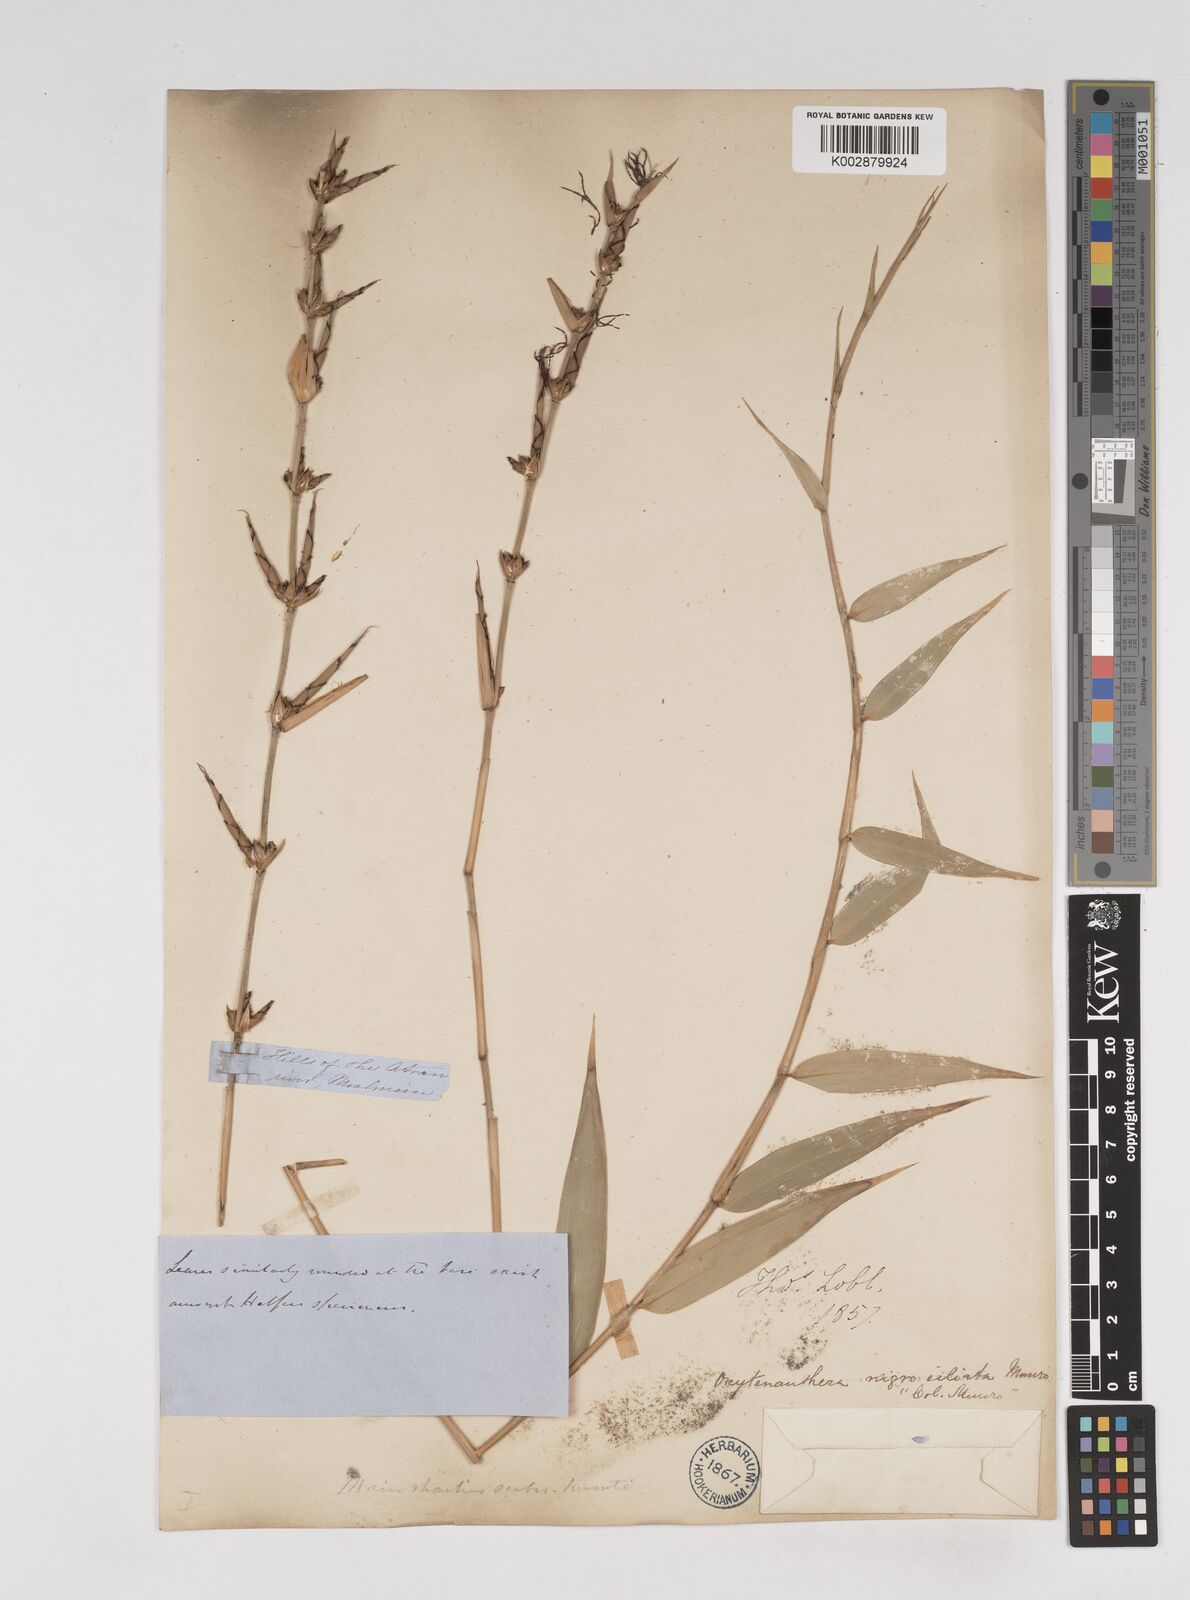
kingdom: Plantae
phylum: Tracheophyta
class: Liliopsida
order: Poales
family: Poaceae
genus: Gigantochloa
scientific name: Gigantochloa nigrociliata
